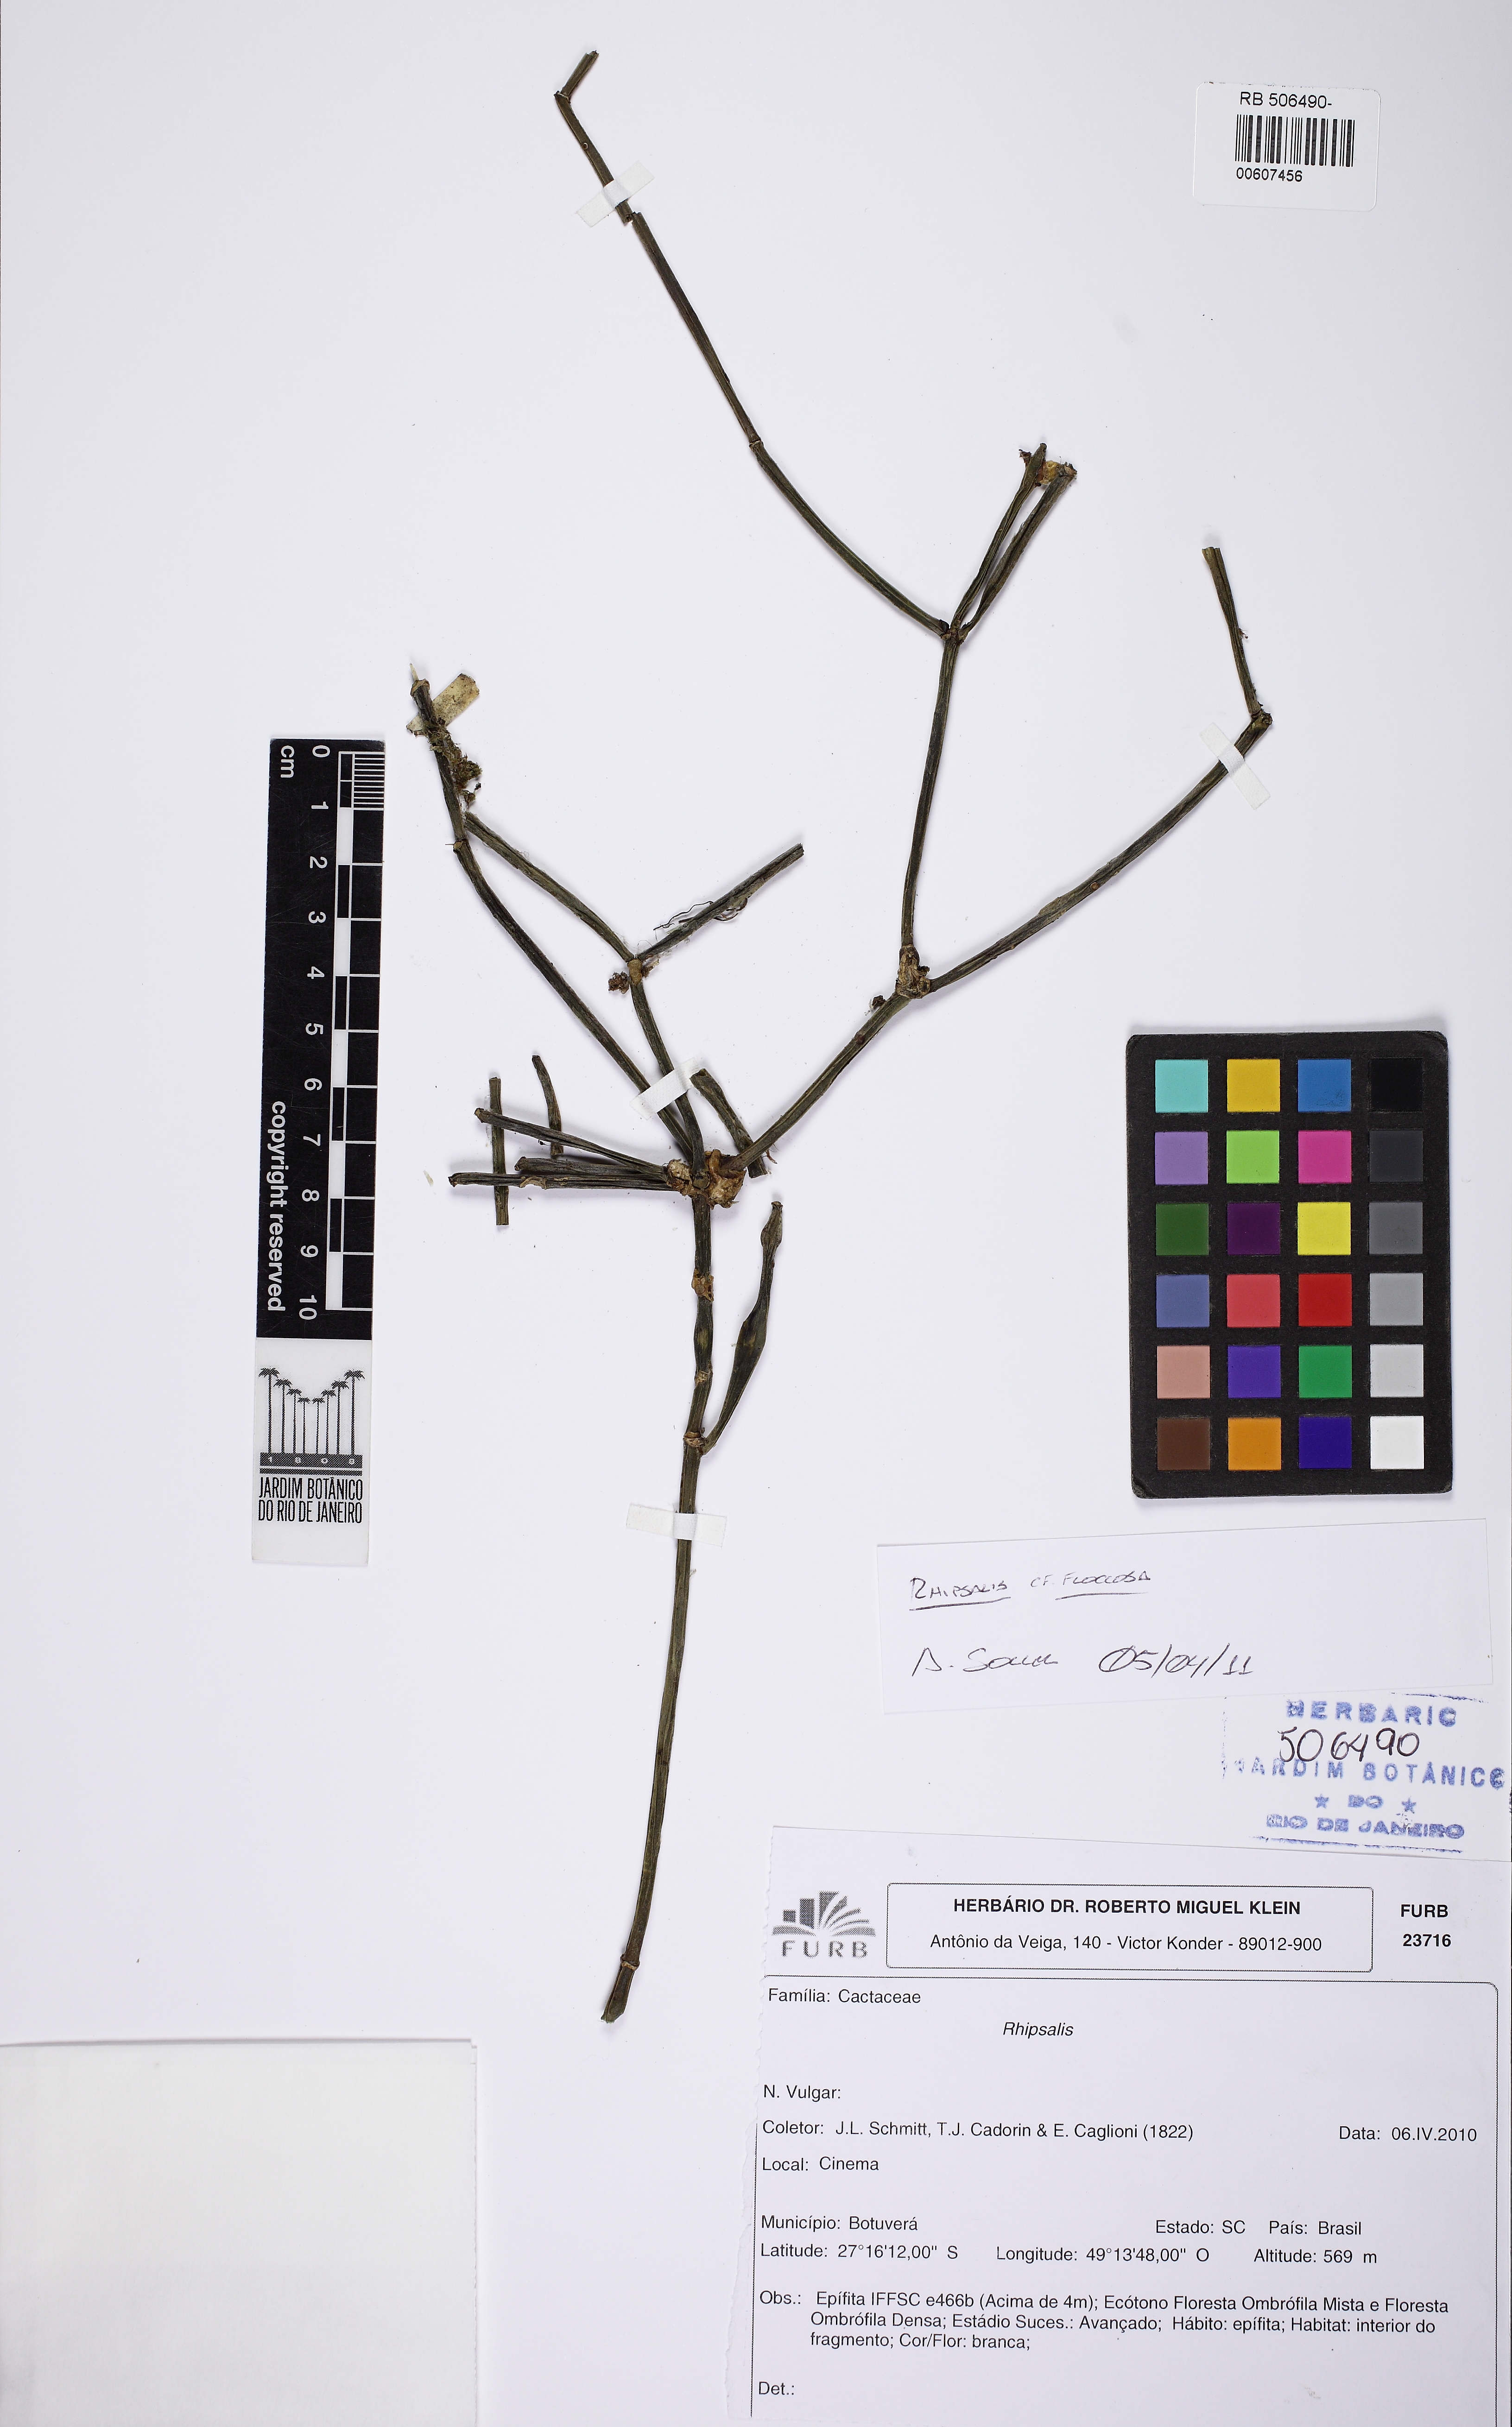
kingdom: Plantae
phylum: Tracheophyta
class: Magnoliopsida
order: Caryophyllales
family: Cactaceae
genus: Rhipsalis
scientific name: Rhipsalis floccosa
